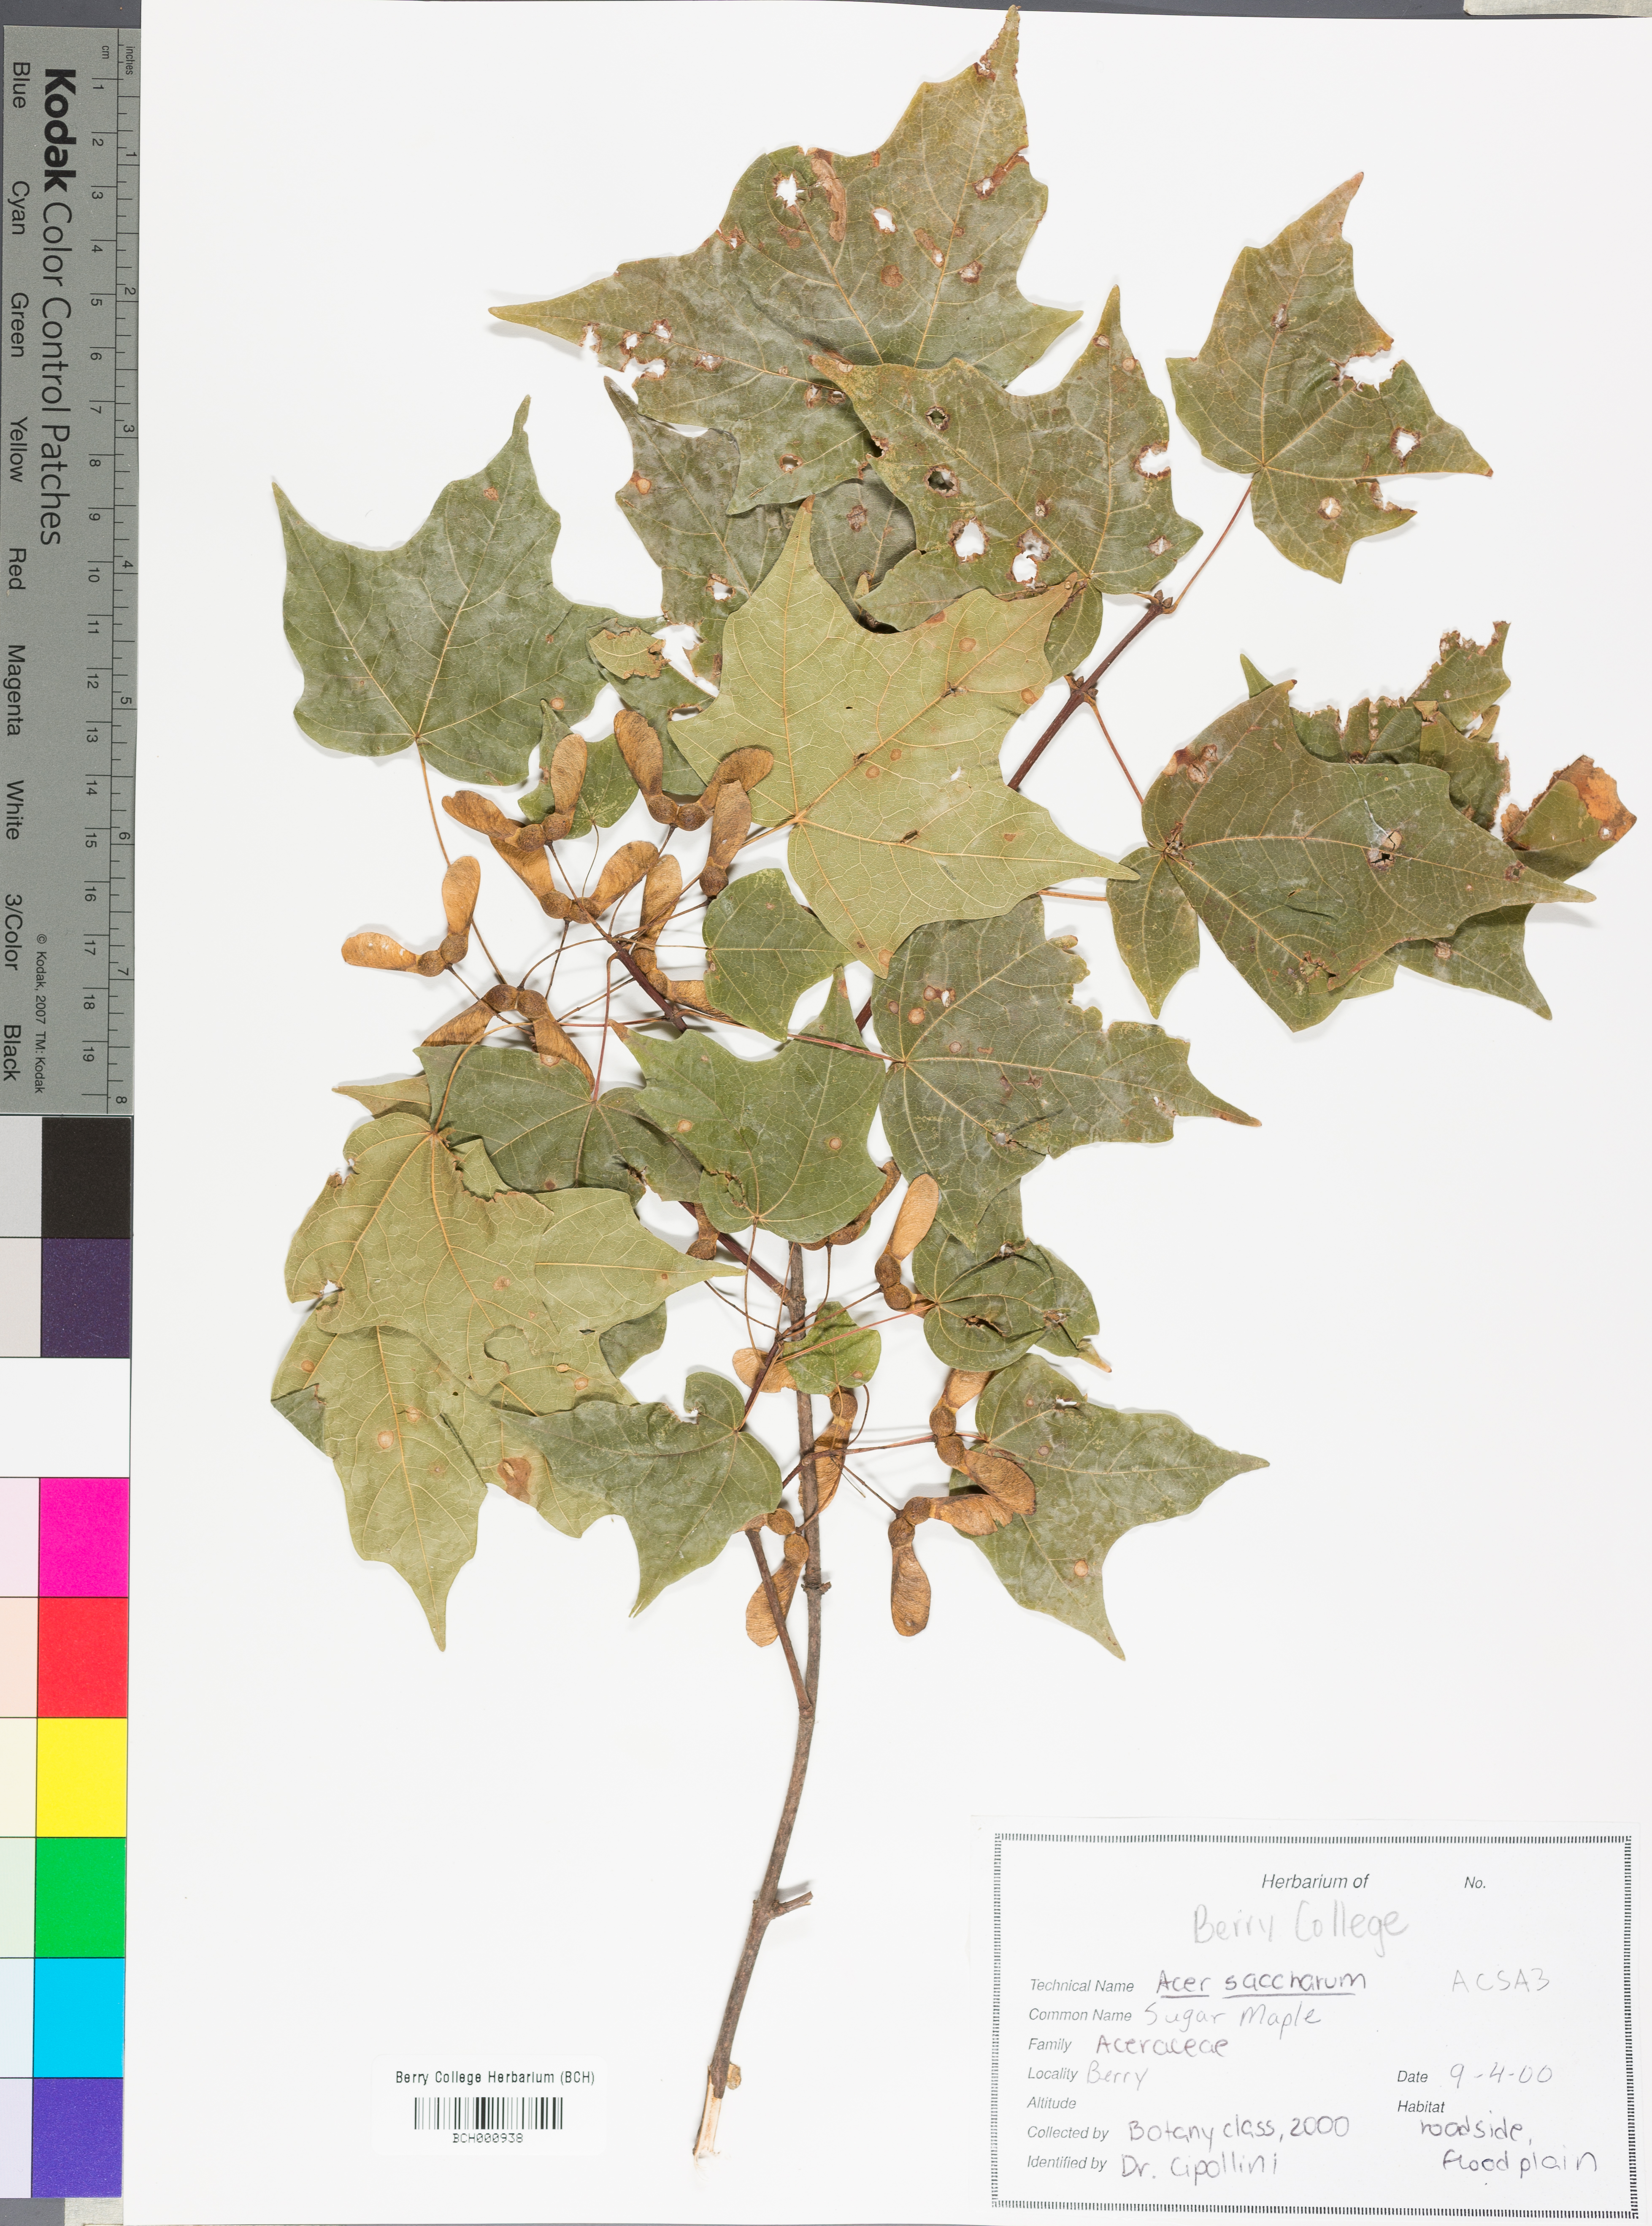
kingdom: Plantae
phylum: Tracheophyta
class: Magnoliopsida
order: Sapindales
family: Sapindaceae
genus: Acer
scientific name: Acer saccharum
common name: Sugar maple
